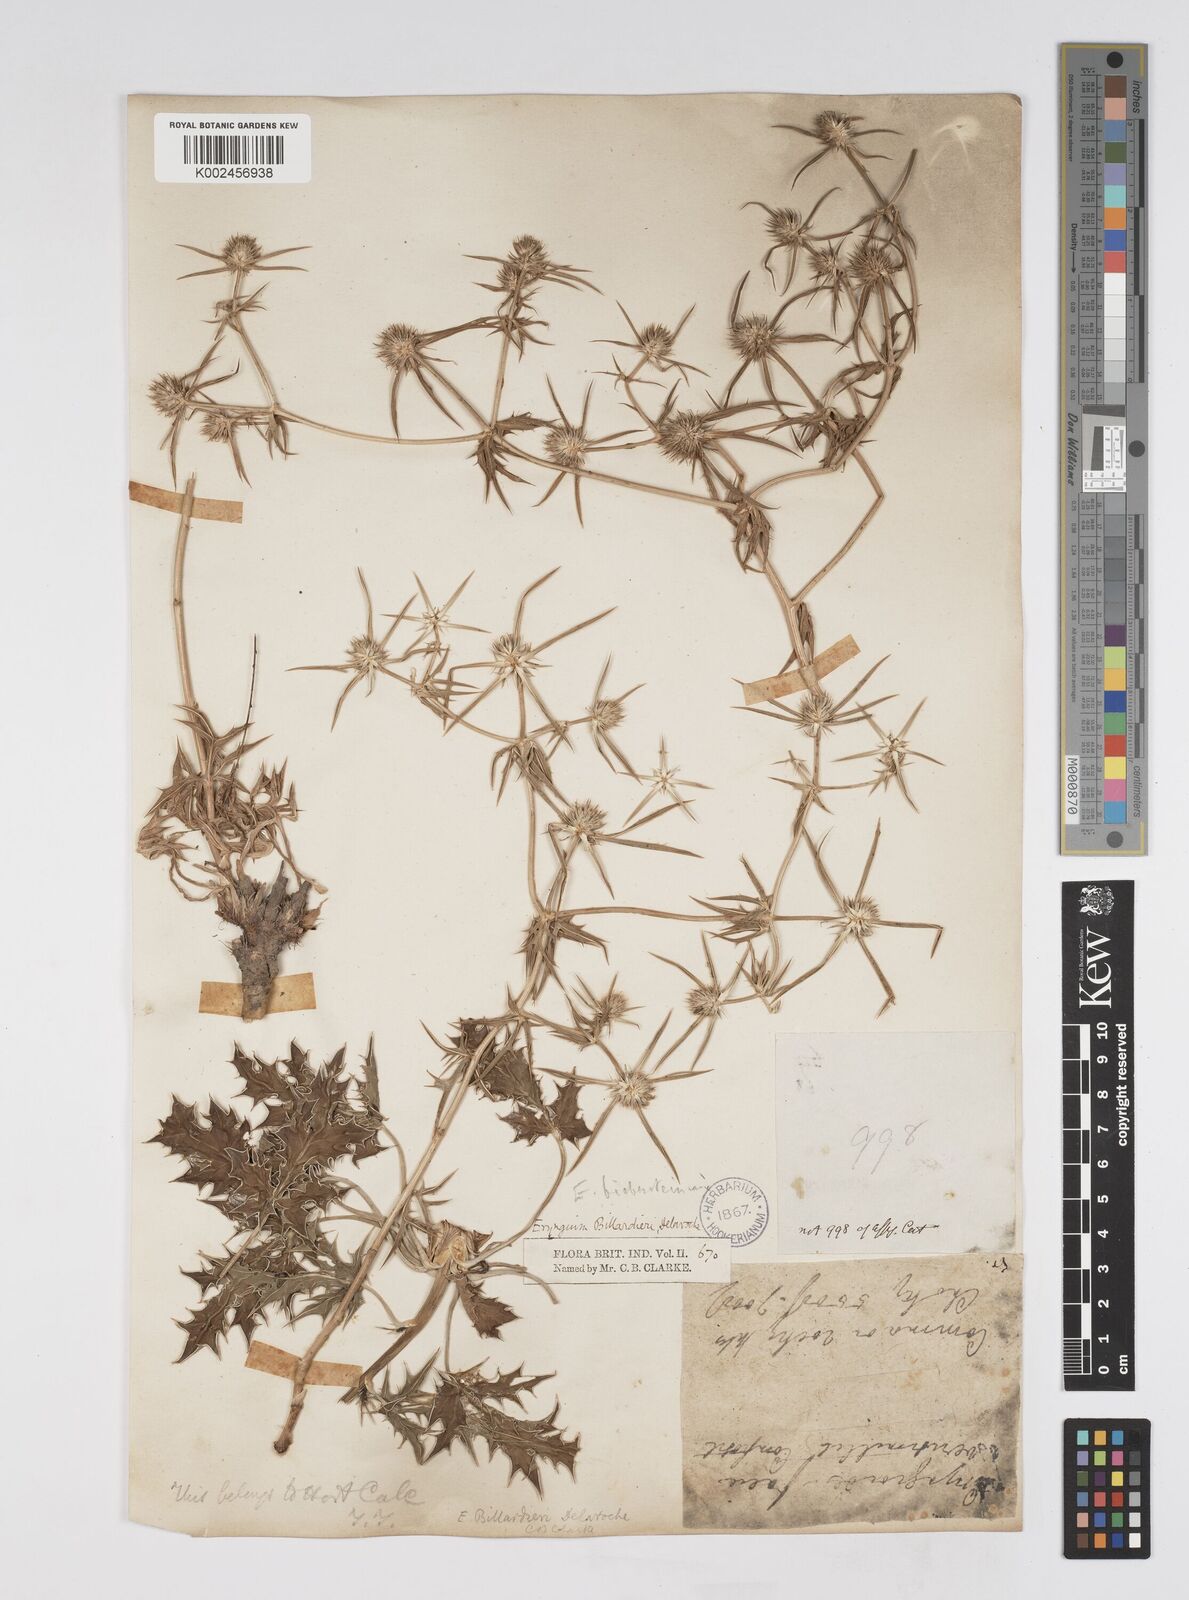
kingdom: Plantae
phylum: Tracheophyta
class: Magnoliopsida
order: Apiales
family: Apiaceae
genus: Eryngium
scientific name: Eryngium
